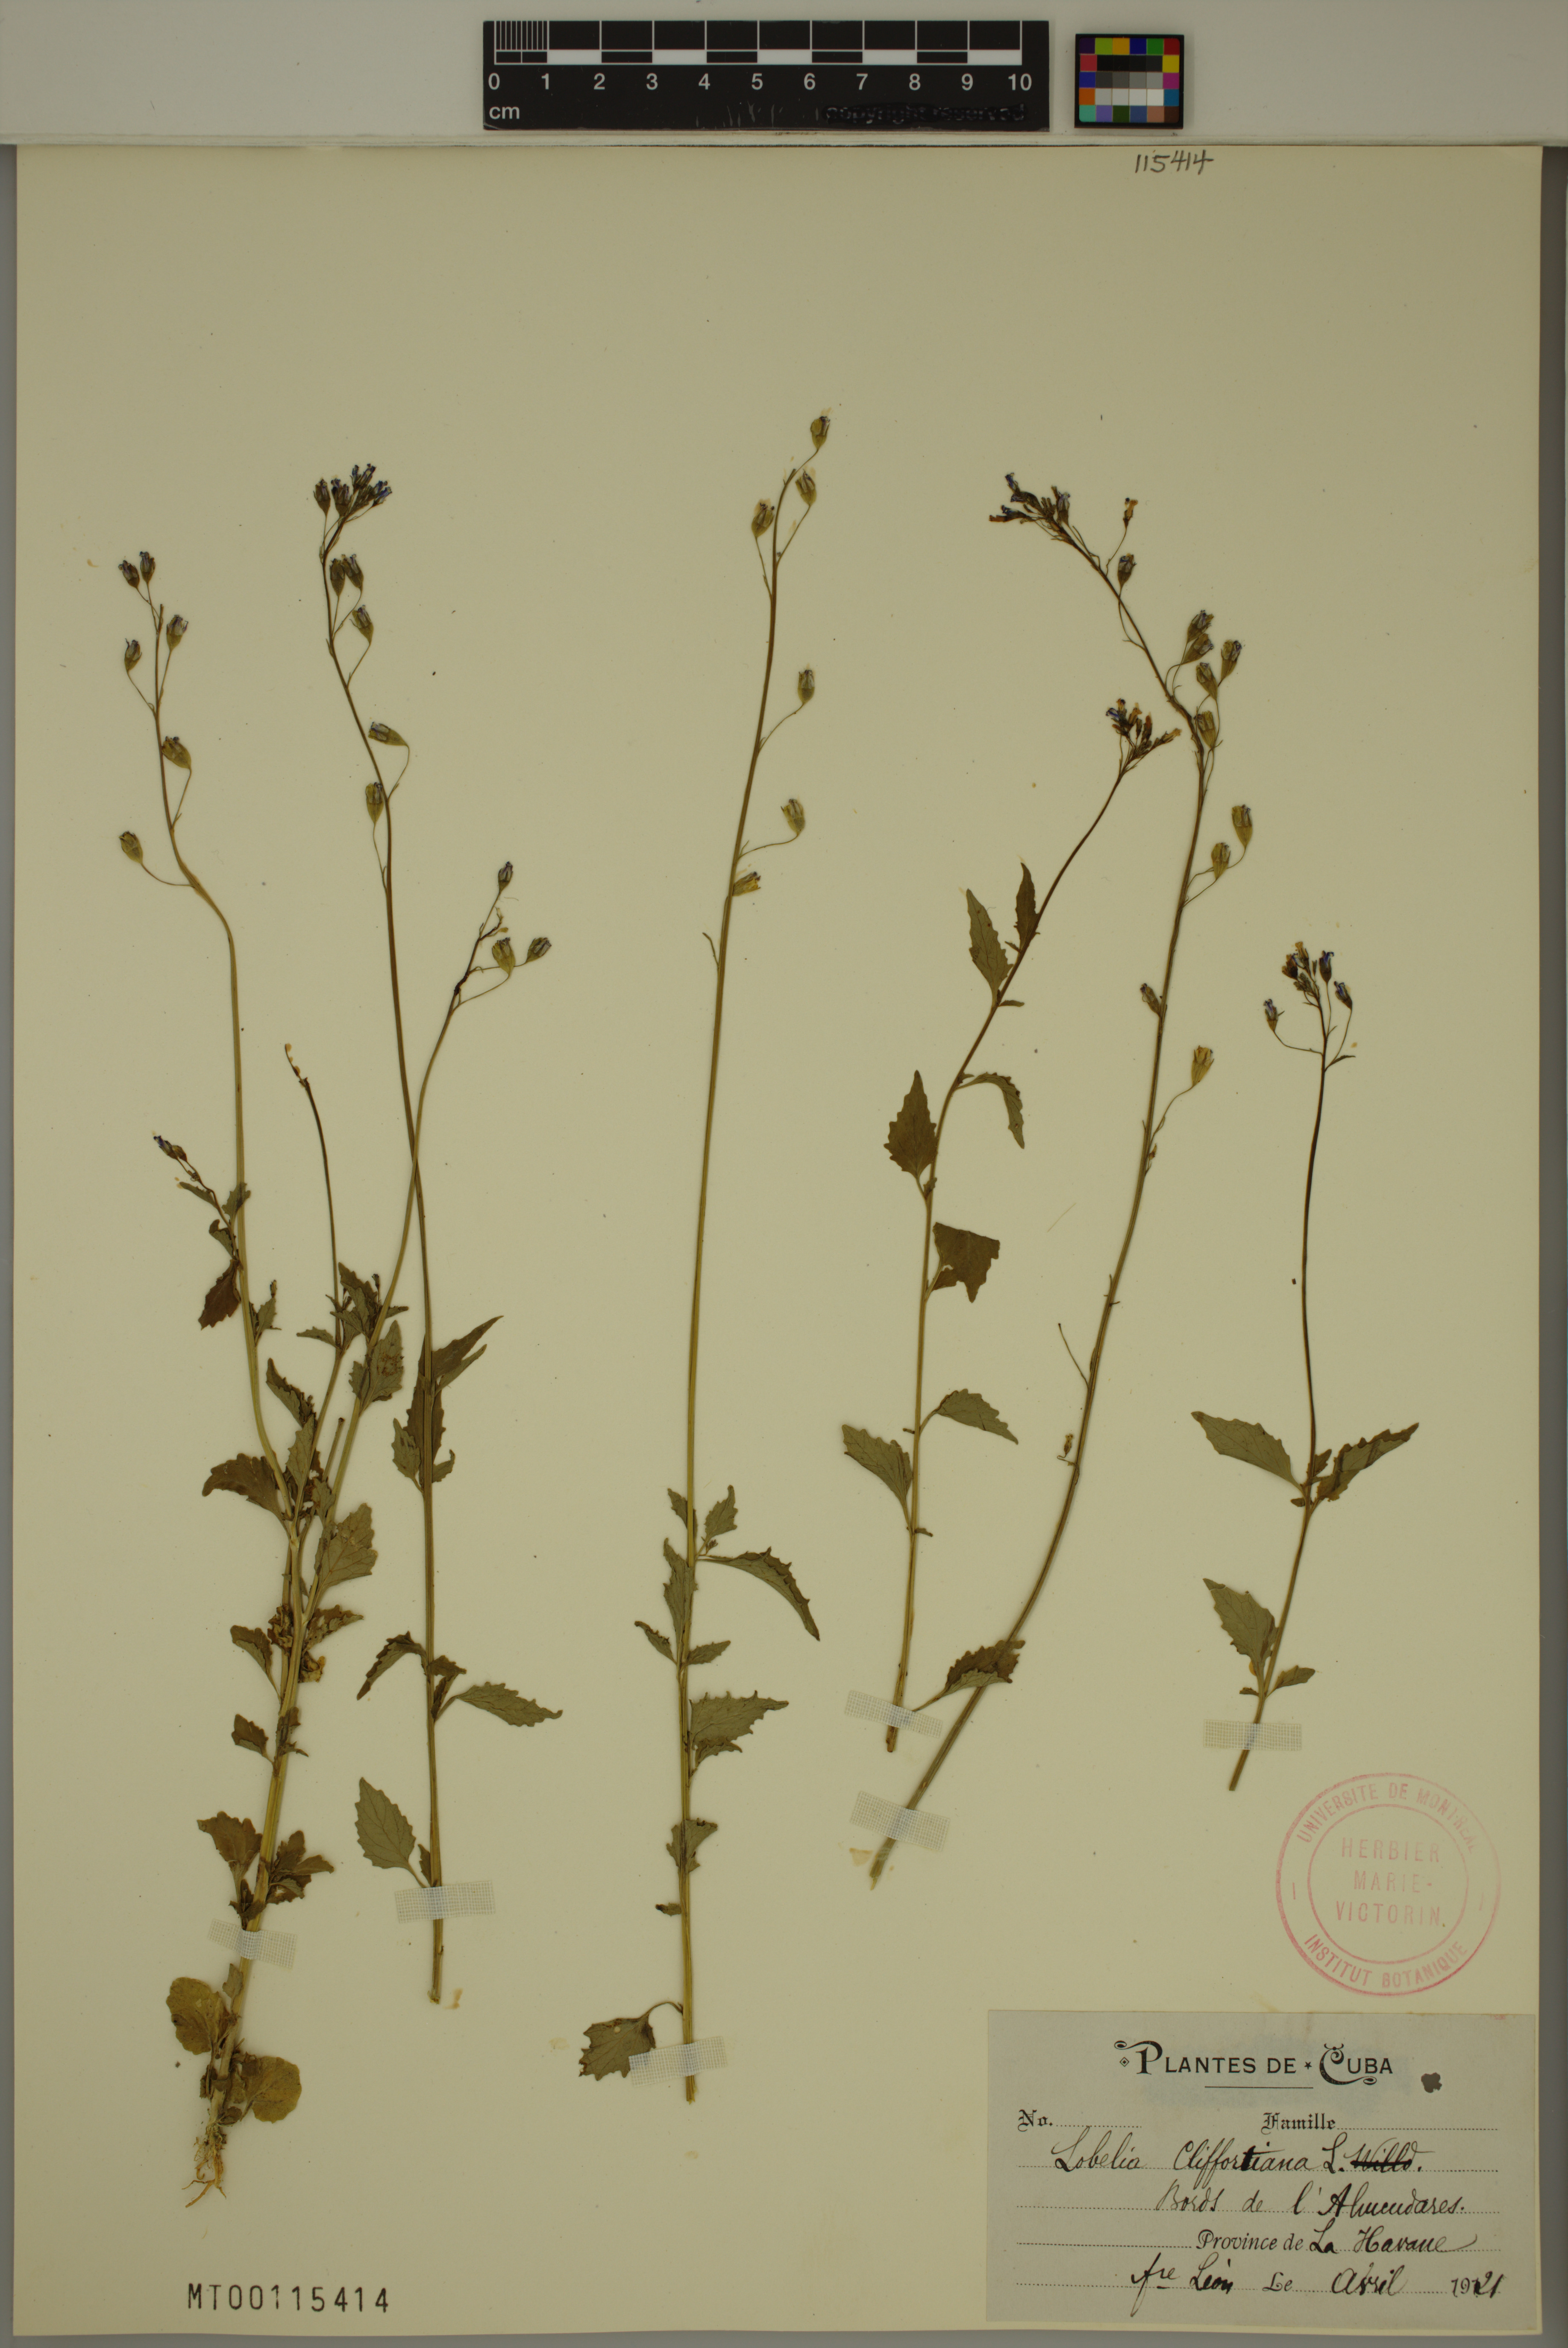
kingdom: Plantae
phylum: Tracheophyta
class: Magnoliopsida
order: Asterales
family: Campanulaceae
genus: Lobelia
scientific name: Lobelia cliffortiana
